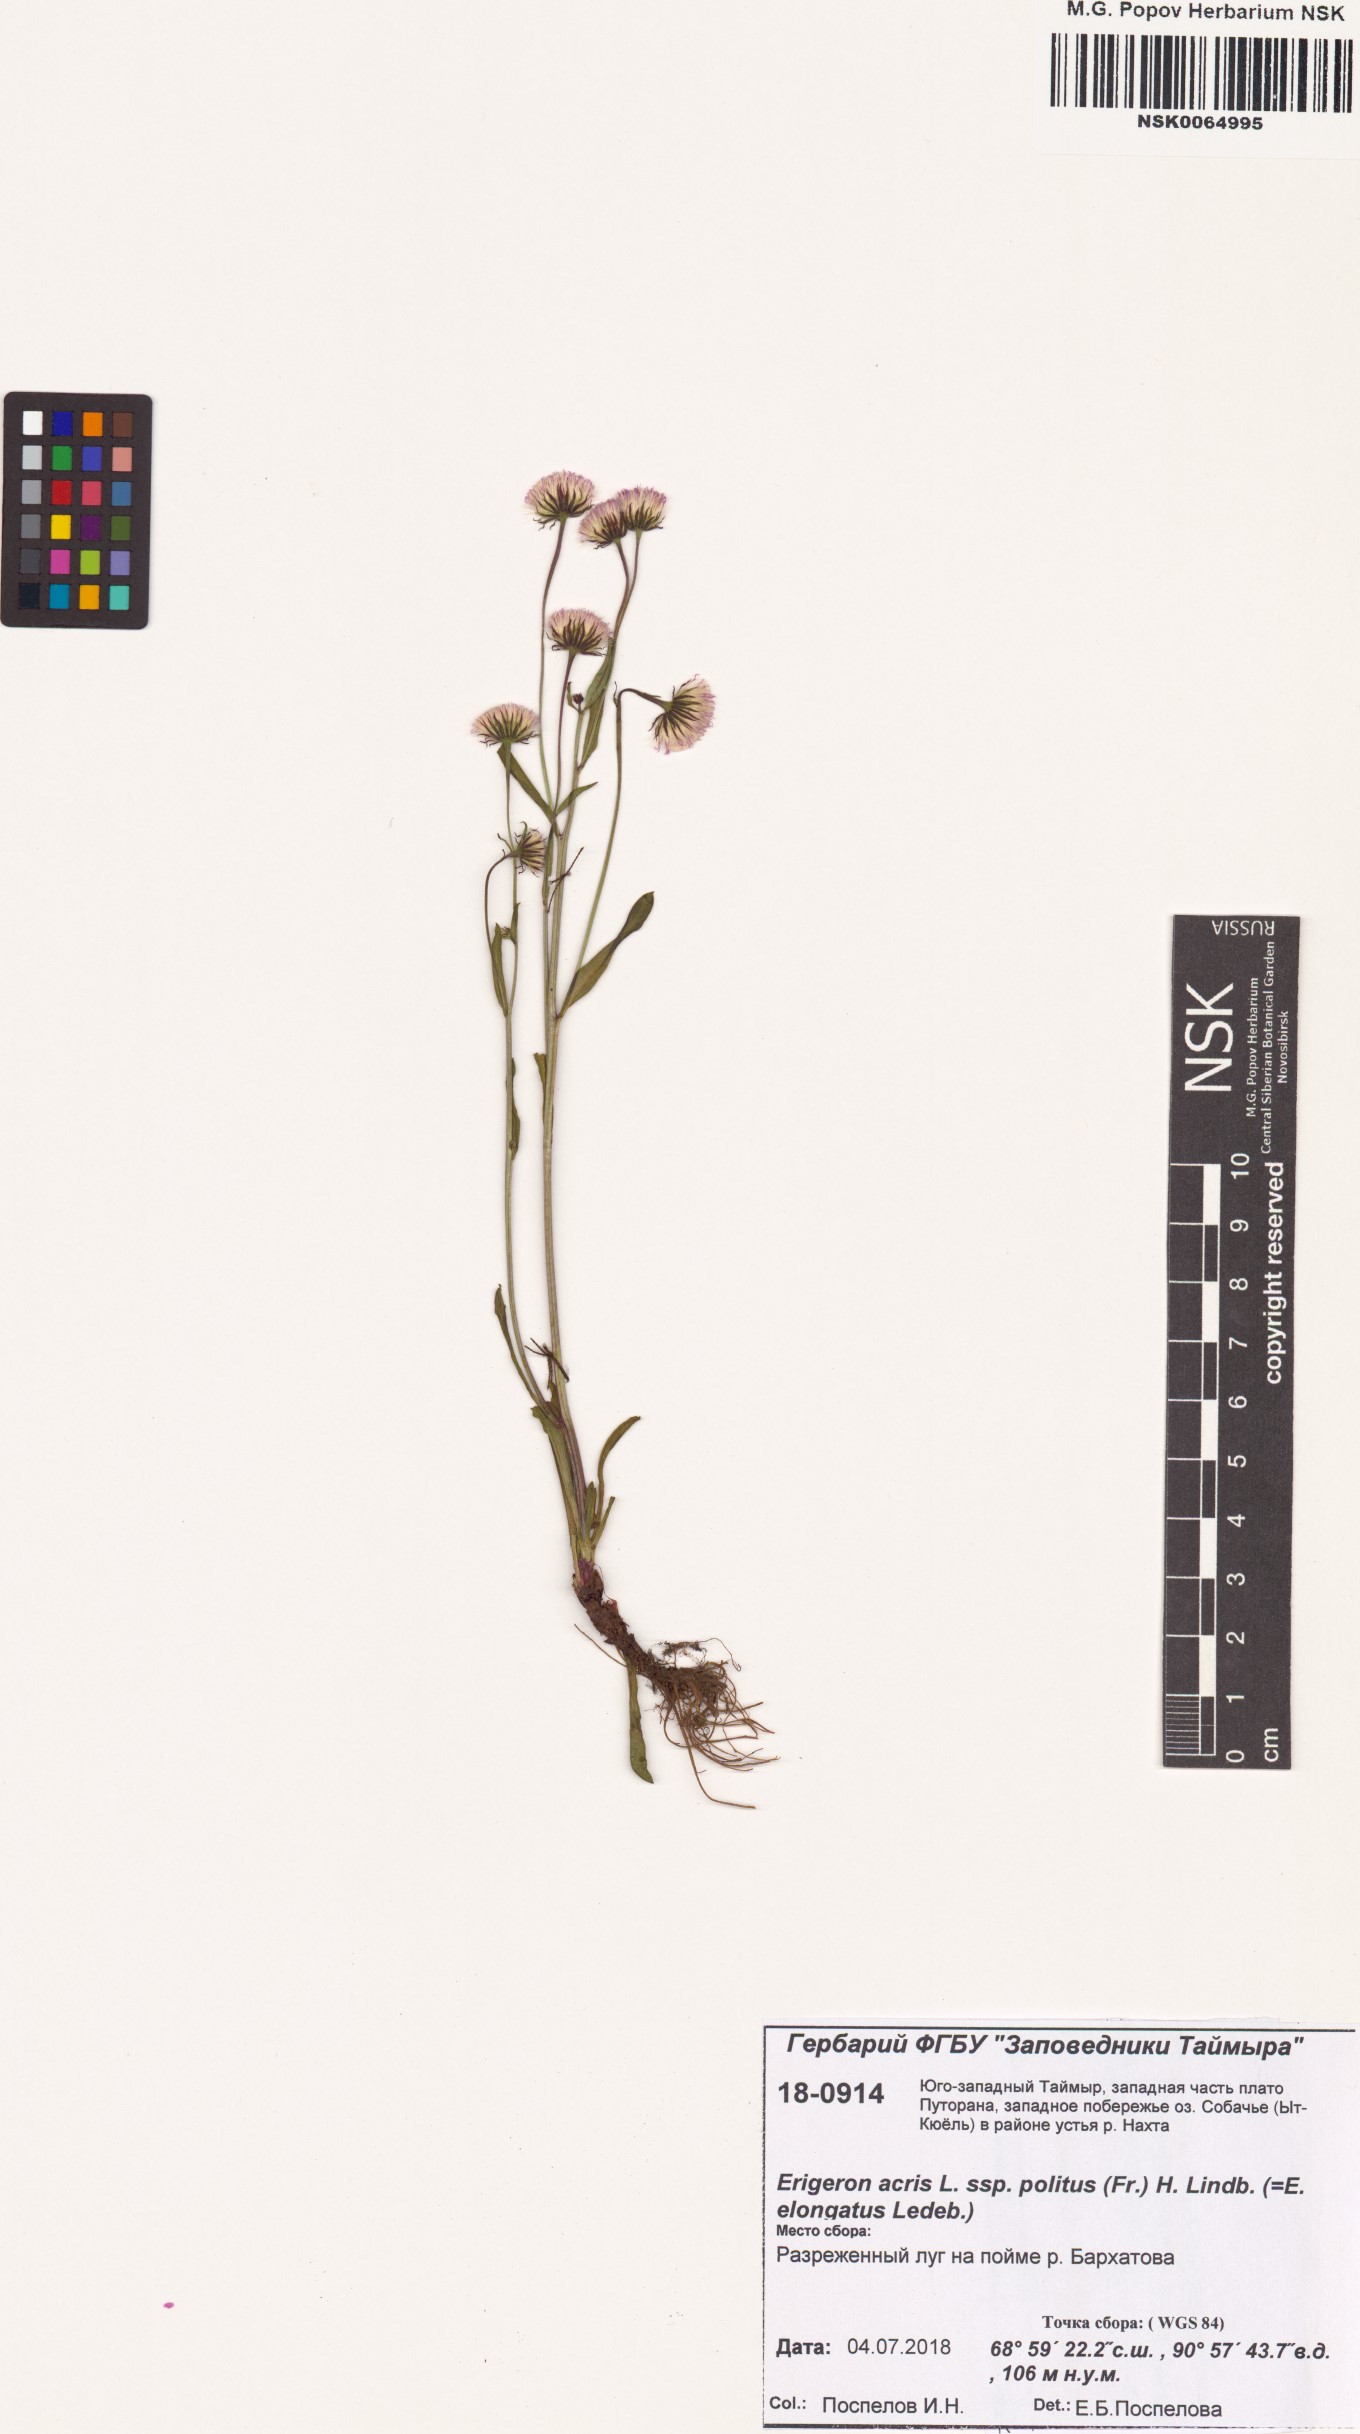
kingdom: Plantae
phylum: Tracheophyta
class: Magnoliopsida
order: Asterales
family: Asteraceae
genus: Erigeron
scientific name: Erigeron politus
